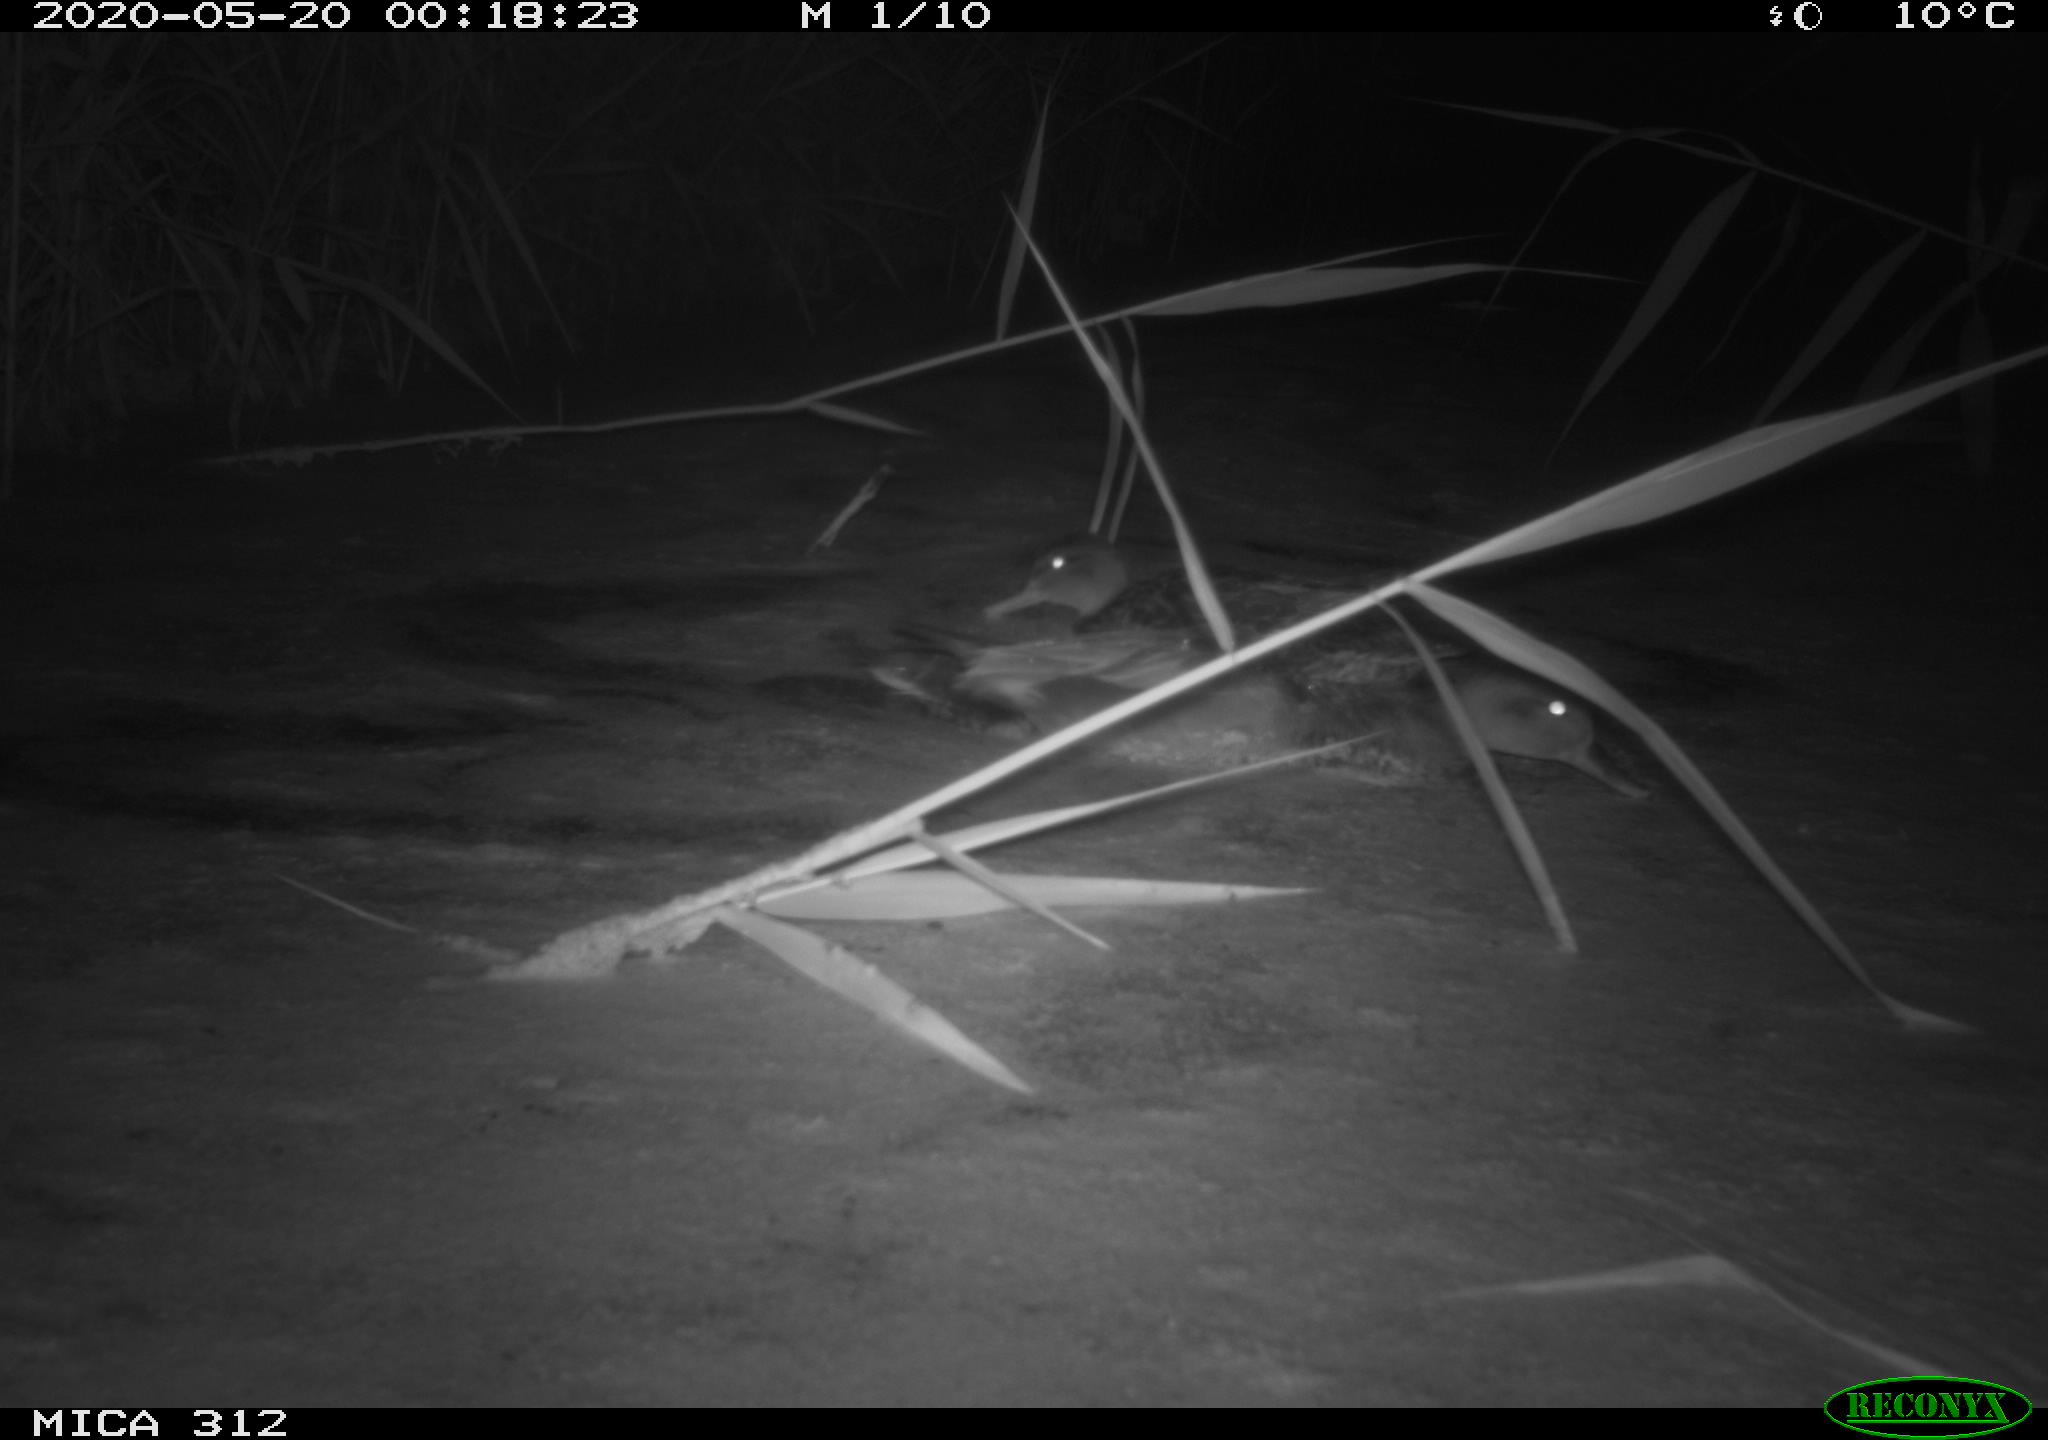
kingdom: Animalia
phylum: Chordata
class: Aves
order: Anseriformes
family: Anatidae
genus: Anas
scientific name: Anas platyrhynchos
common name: Mallard
